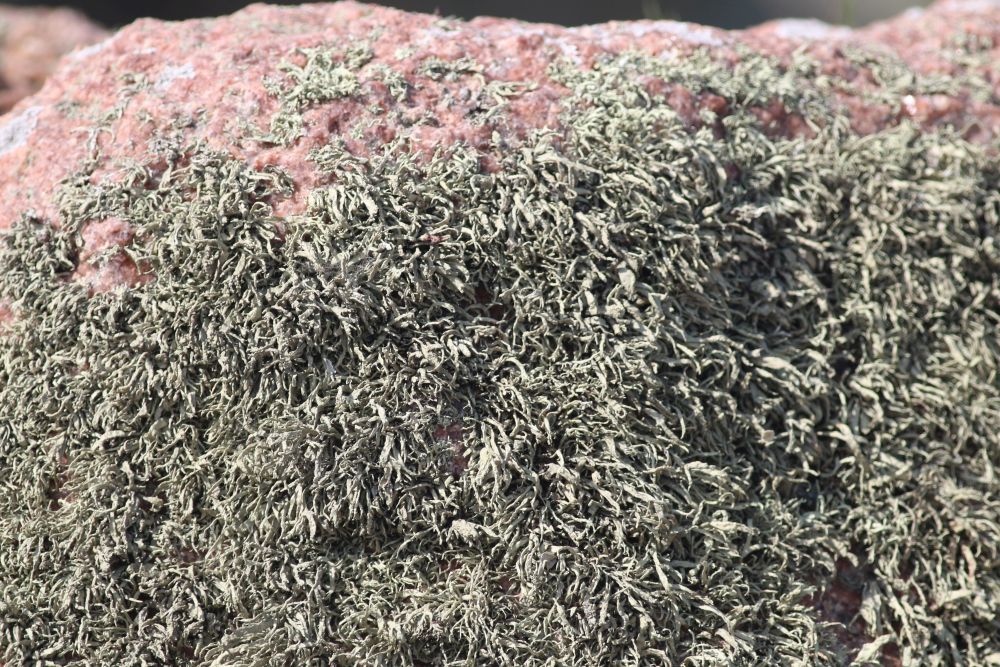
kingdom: Fungi
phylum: Ascomycota
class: Lecanoromycetes
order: Lecanorales
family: Ramalinaceae
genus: Ramalina
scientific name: Ramalina siliquosa
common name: klippe-grenlav
